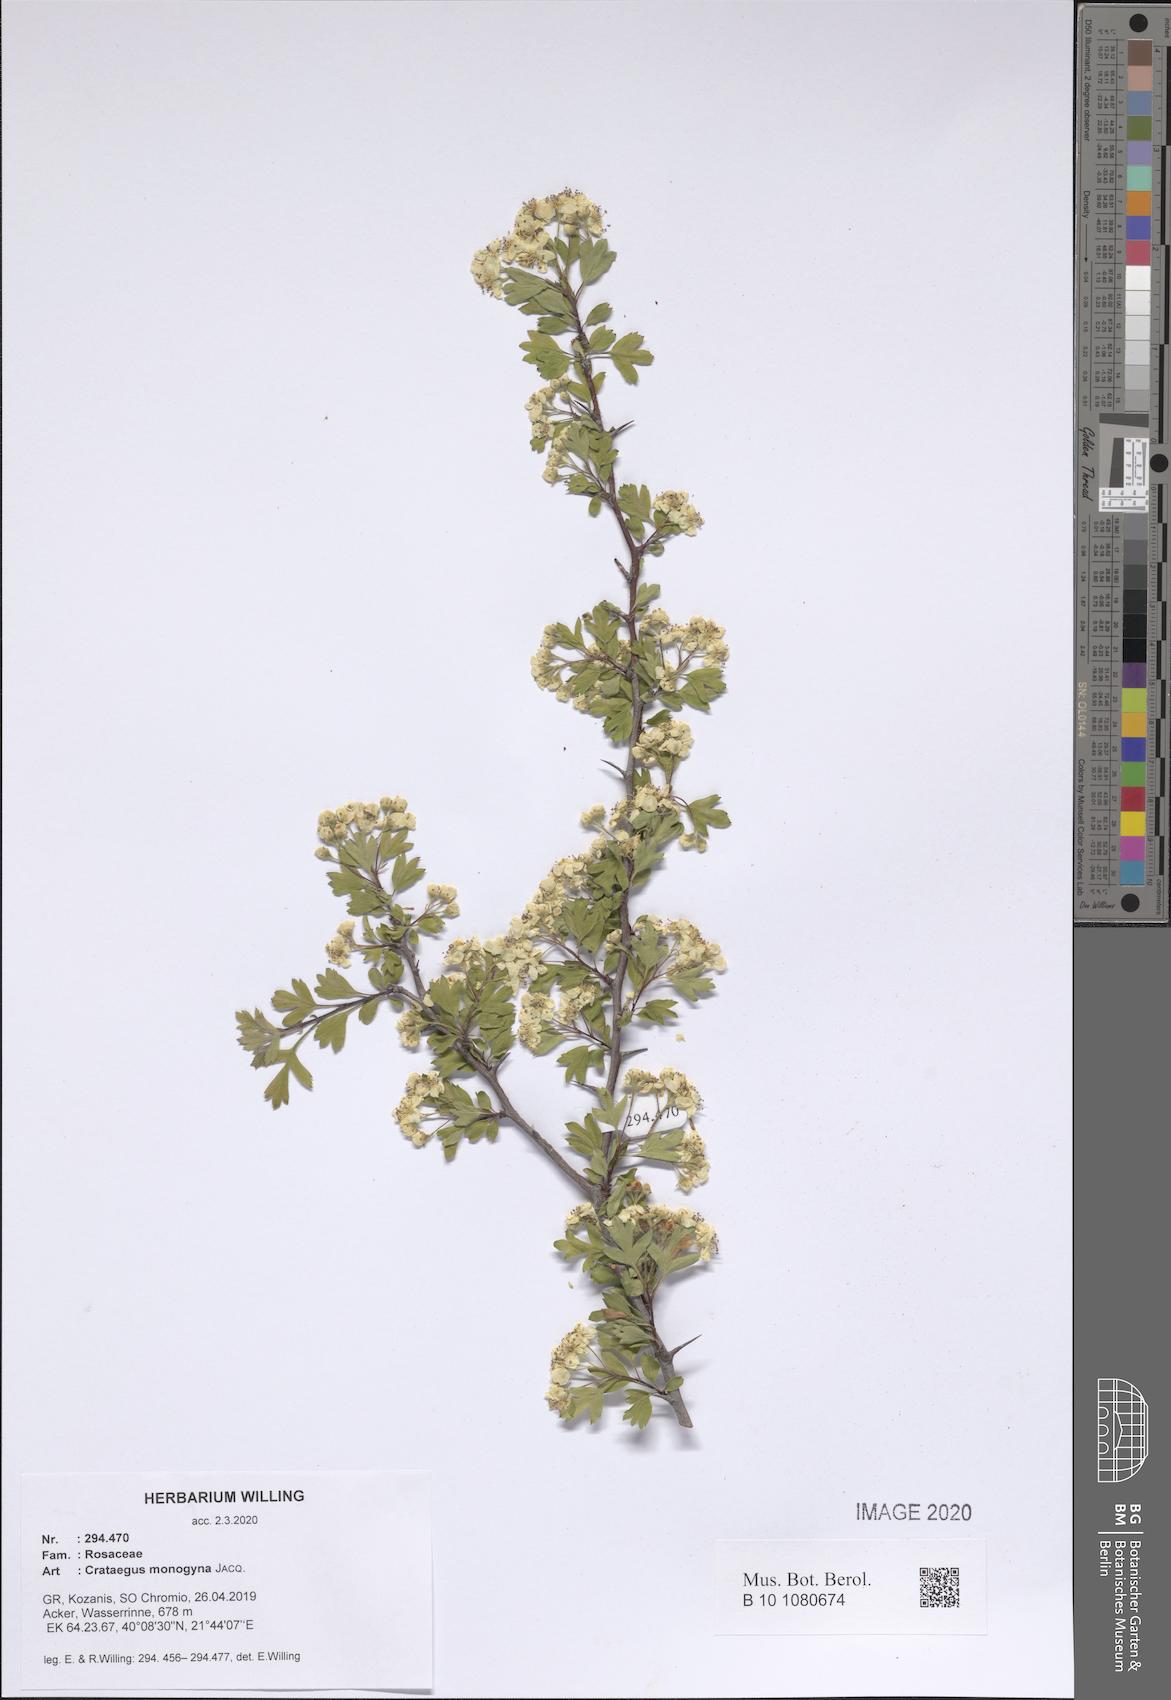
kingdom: Plantae
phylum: Tracheophyta
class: Magnoliopsida
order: Rosales
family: Rosaceae
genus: Crataegus
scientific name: Crataegus monogyna
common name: Hawthorn
